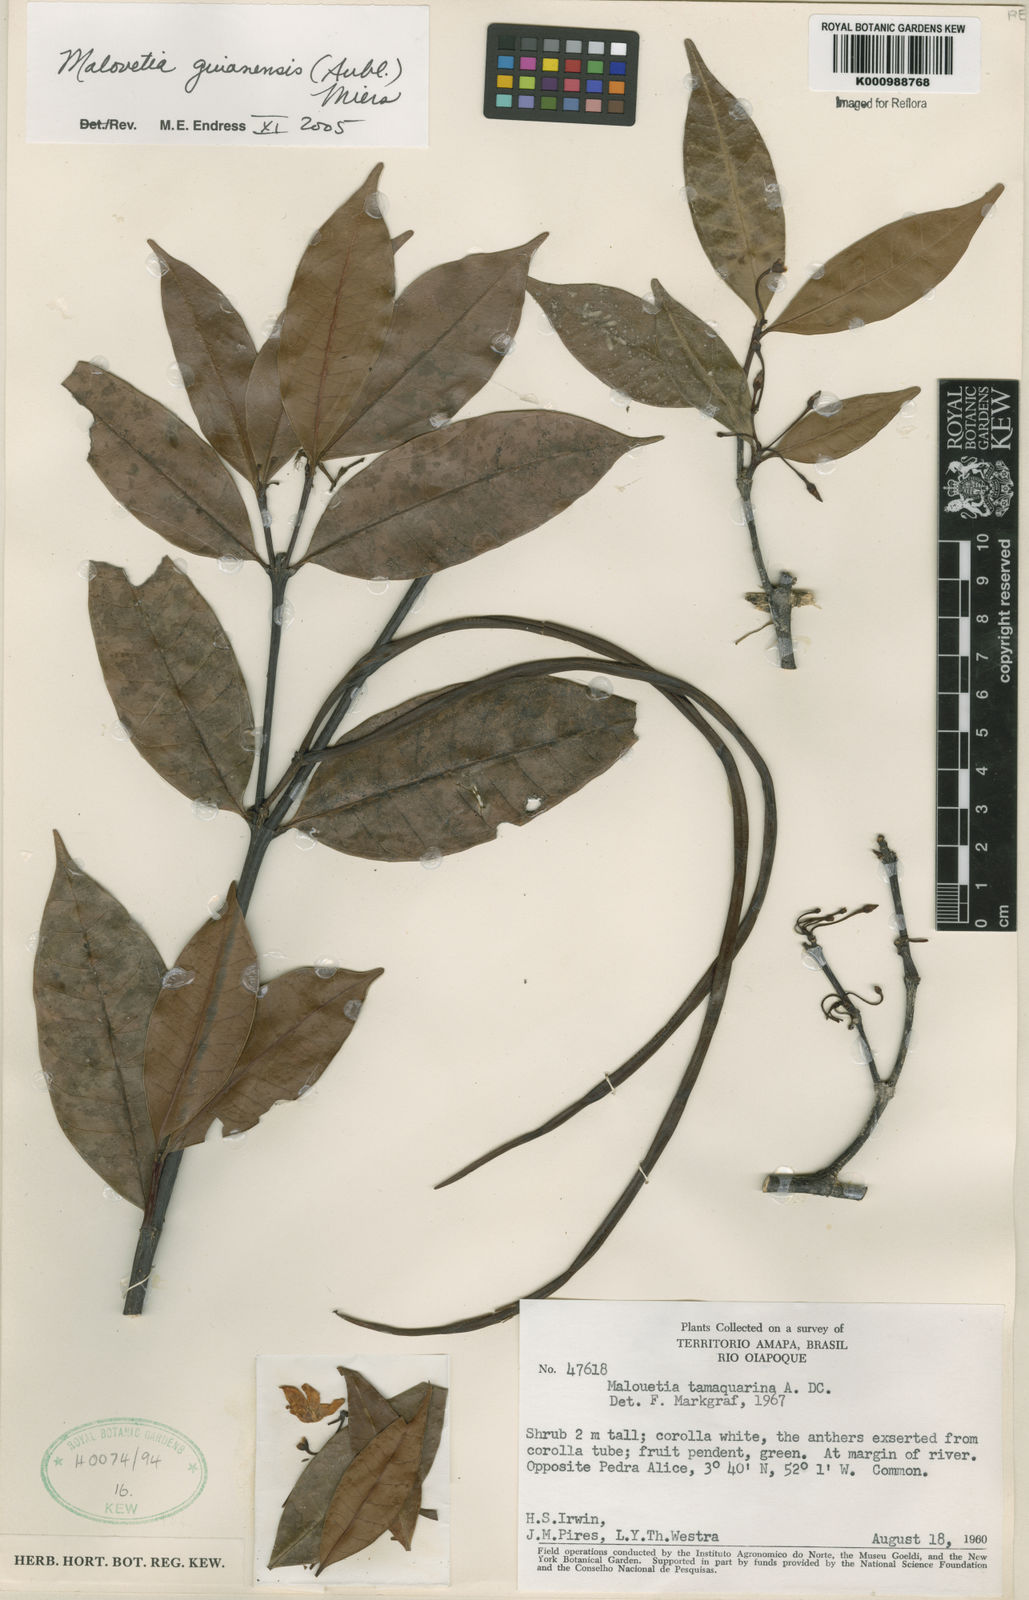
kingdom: Plantae
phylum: Tracheophyta
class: Magnoliopsida
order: Gentianales
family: Apocynaceae
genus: Malouetia
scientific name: Malouetia tamaquarina
